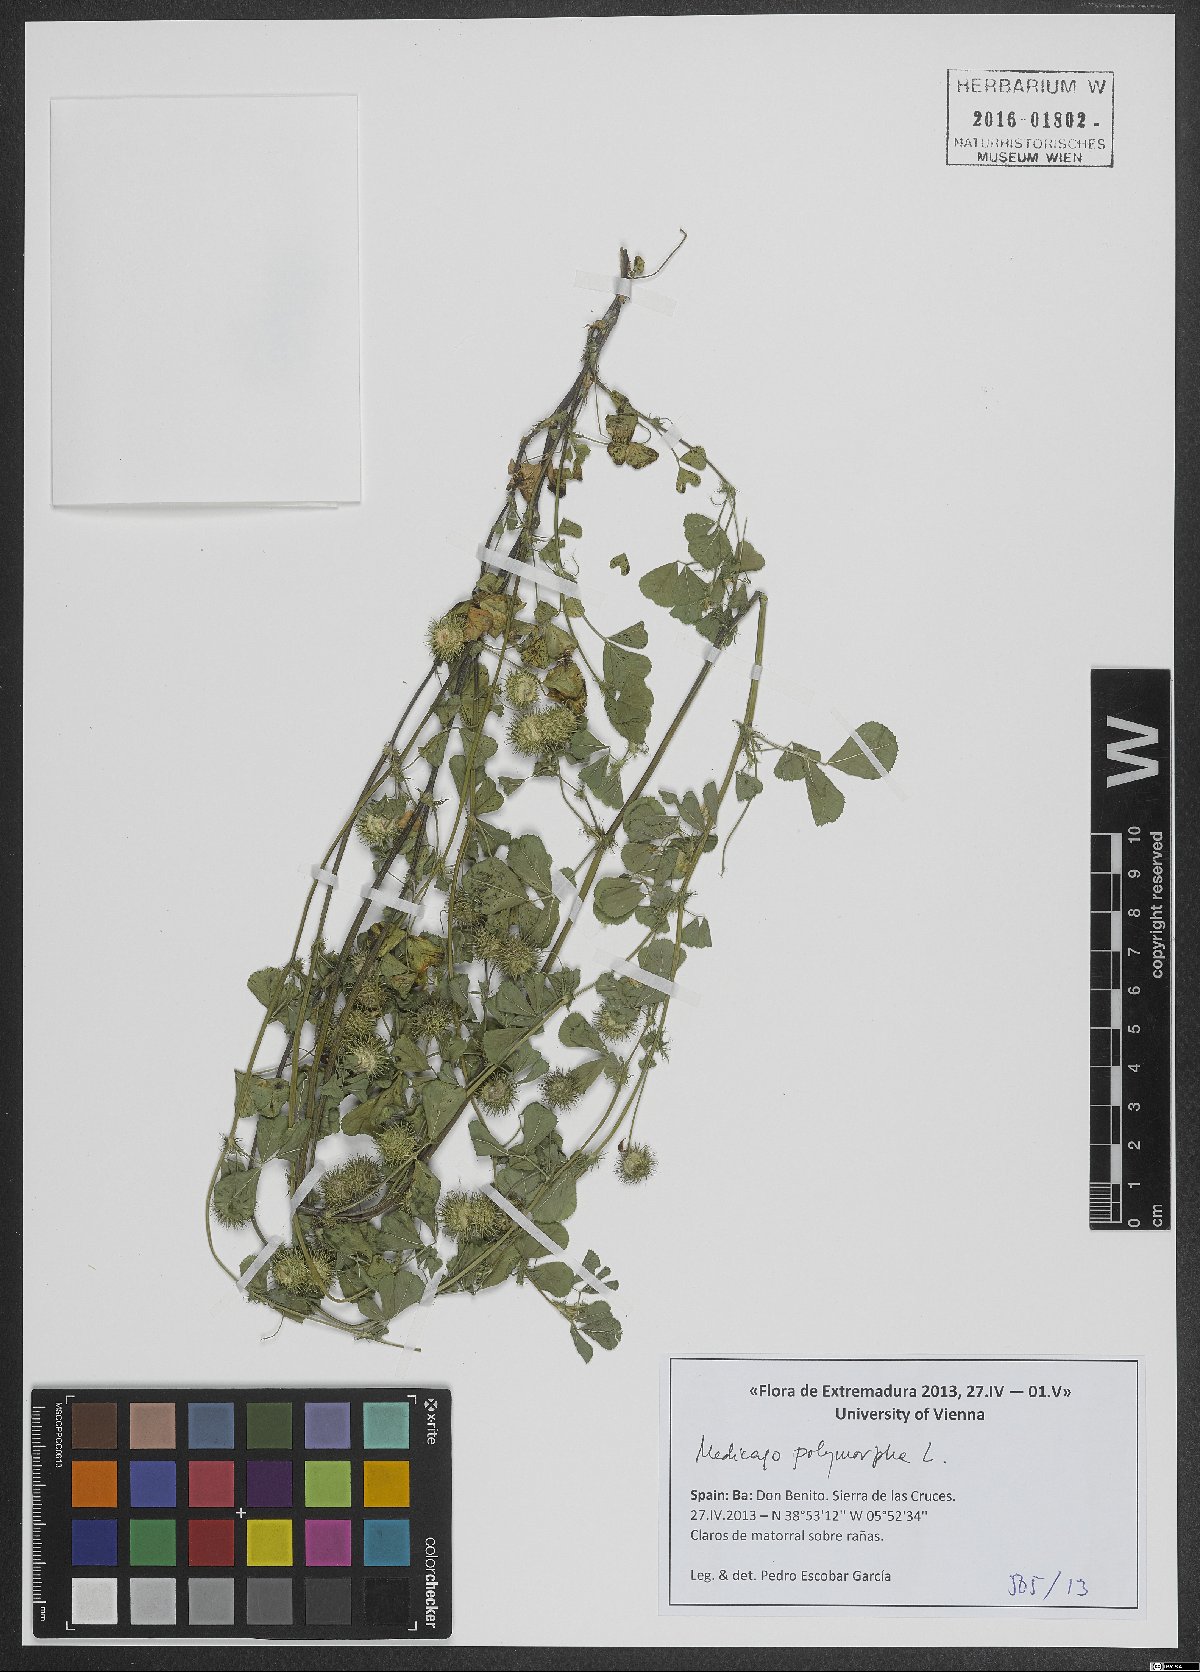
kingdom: Plantae
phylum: Tracheophyta
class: Magnoliopsida
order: Fabales
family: Fabaceae
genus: Medicago
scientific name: Medicago polymorpha
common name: Burclover
